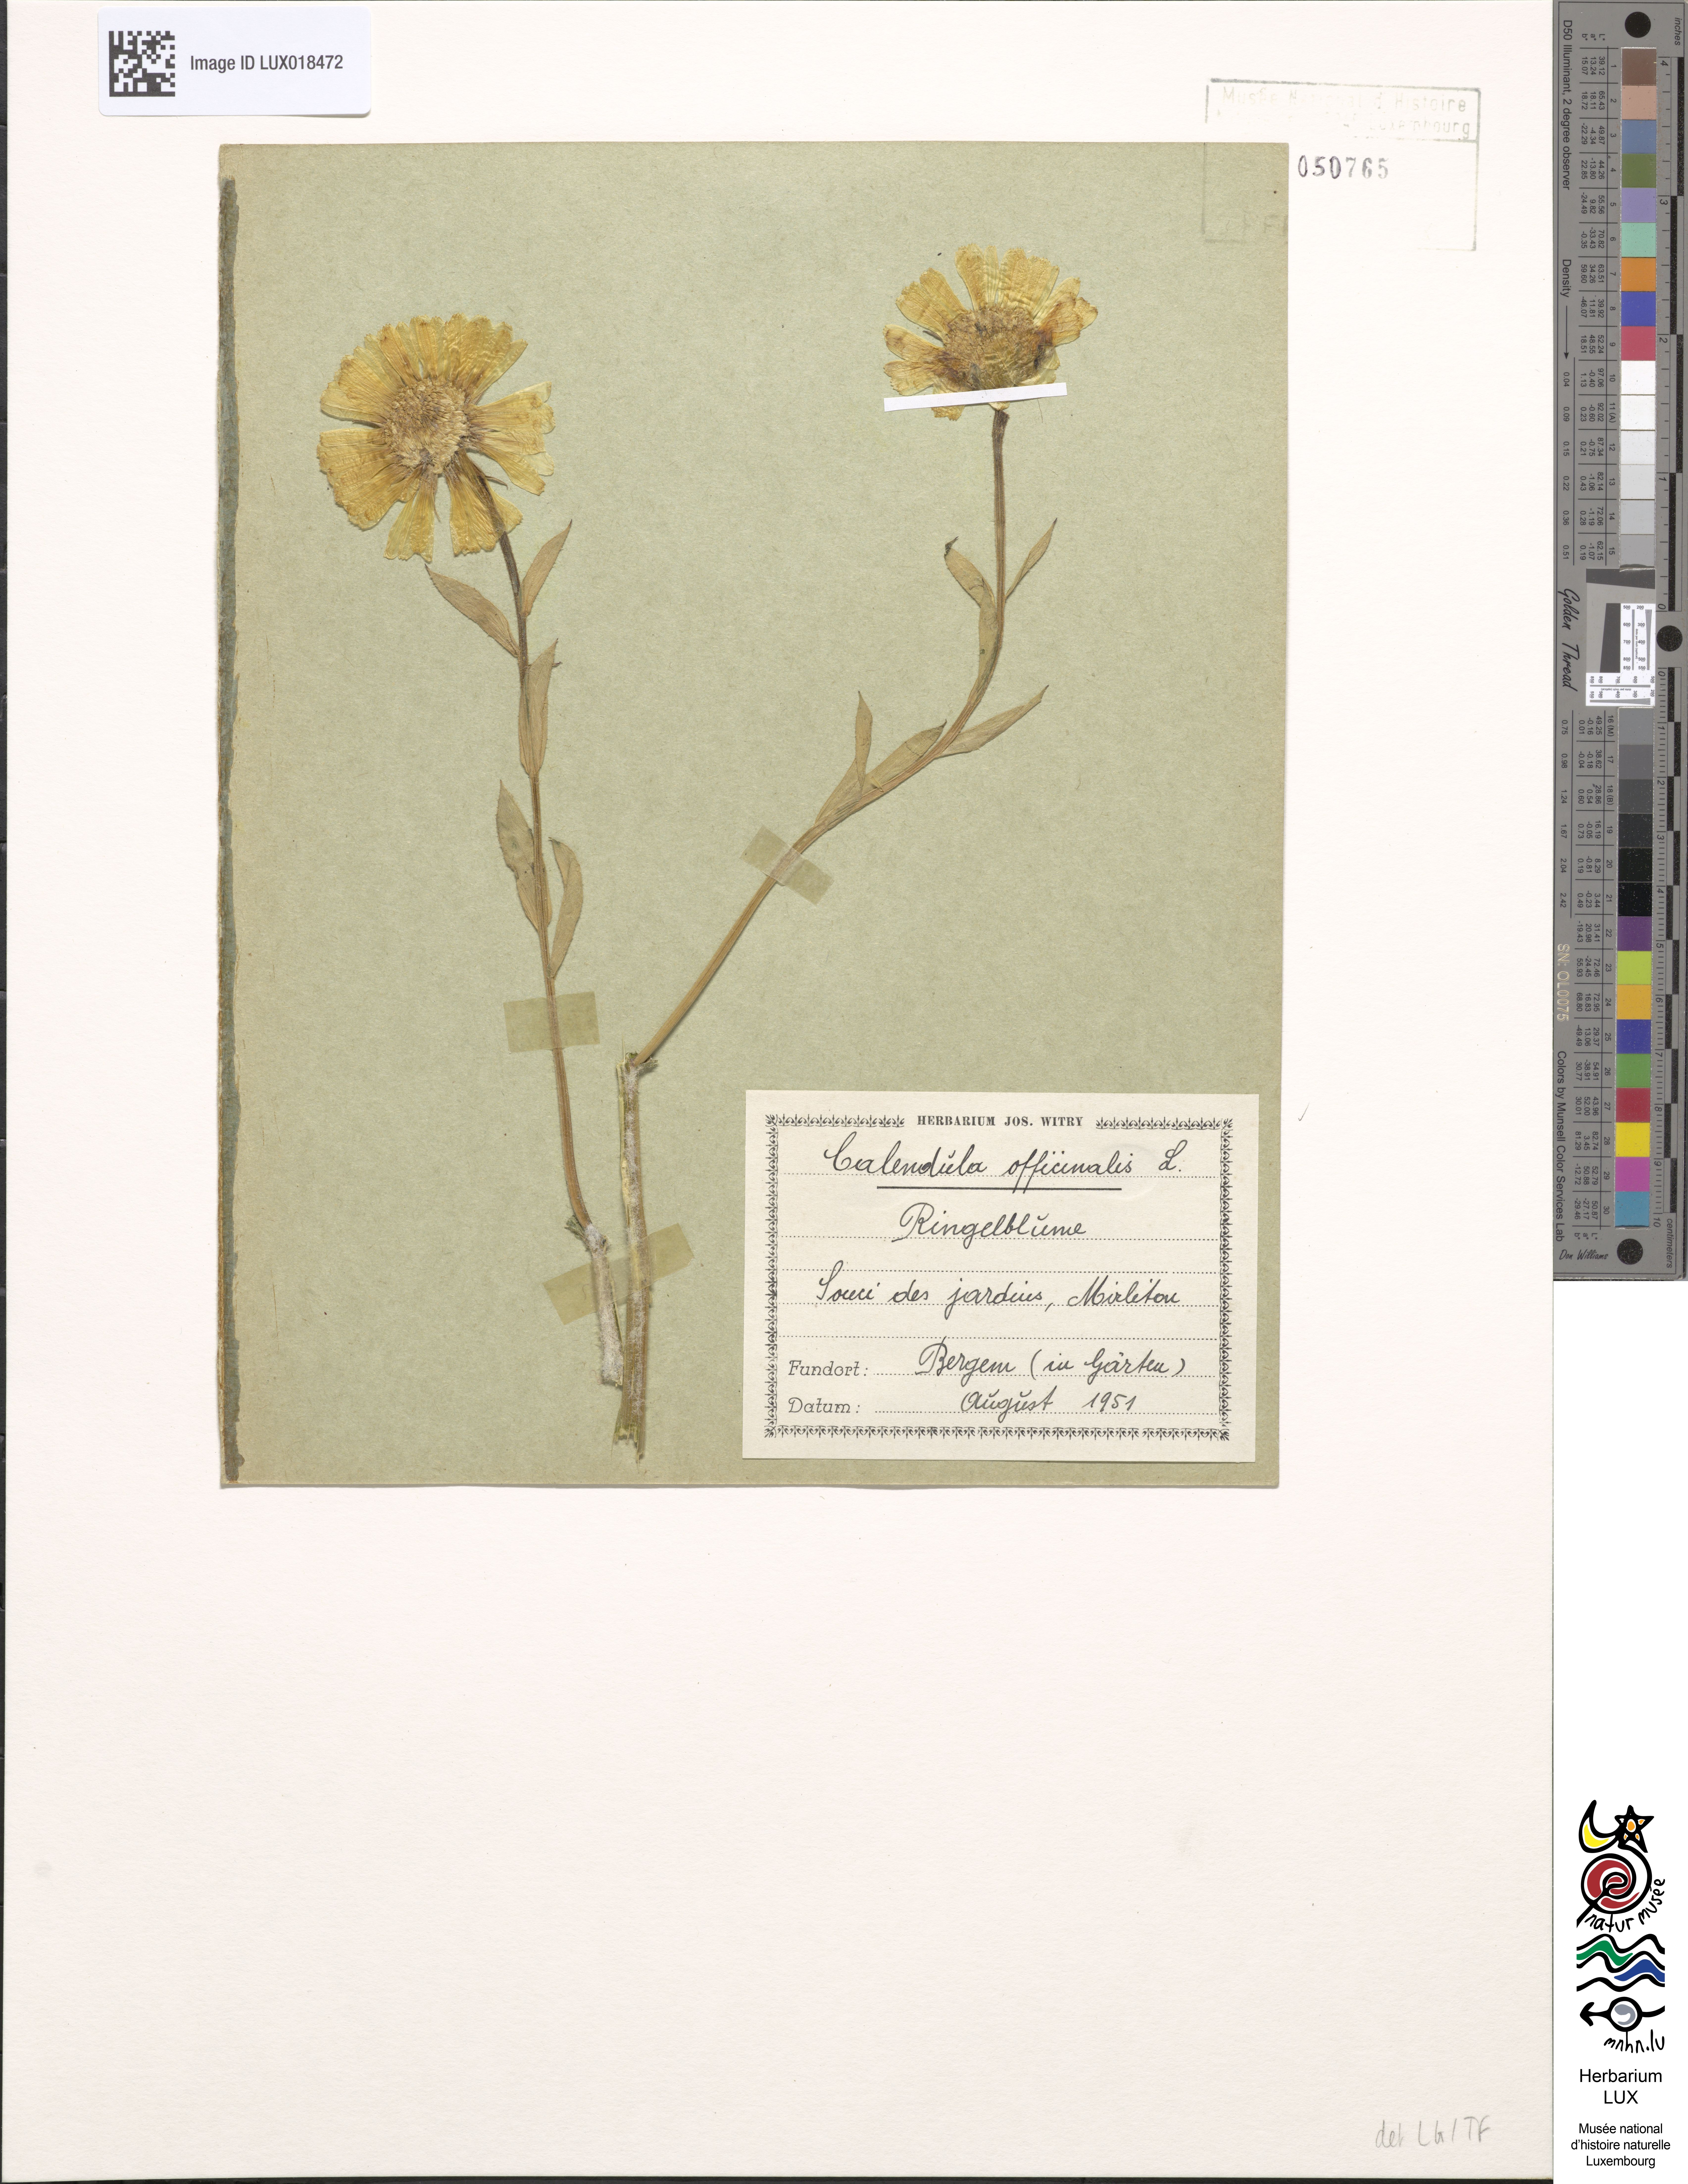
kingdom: Plantae
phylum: Tracheophyta
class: Magnoliopsida
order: Asterales
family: Asteraceae
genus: Calendula
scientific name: Calendula officinalis
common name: Pot marigold
